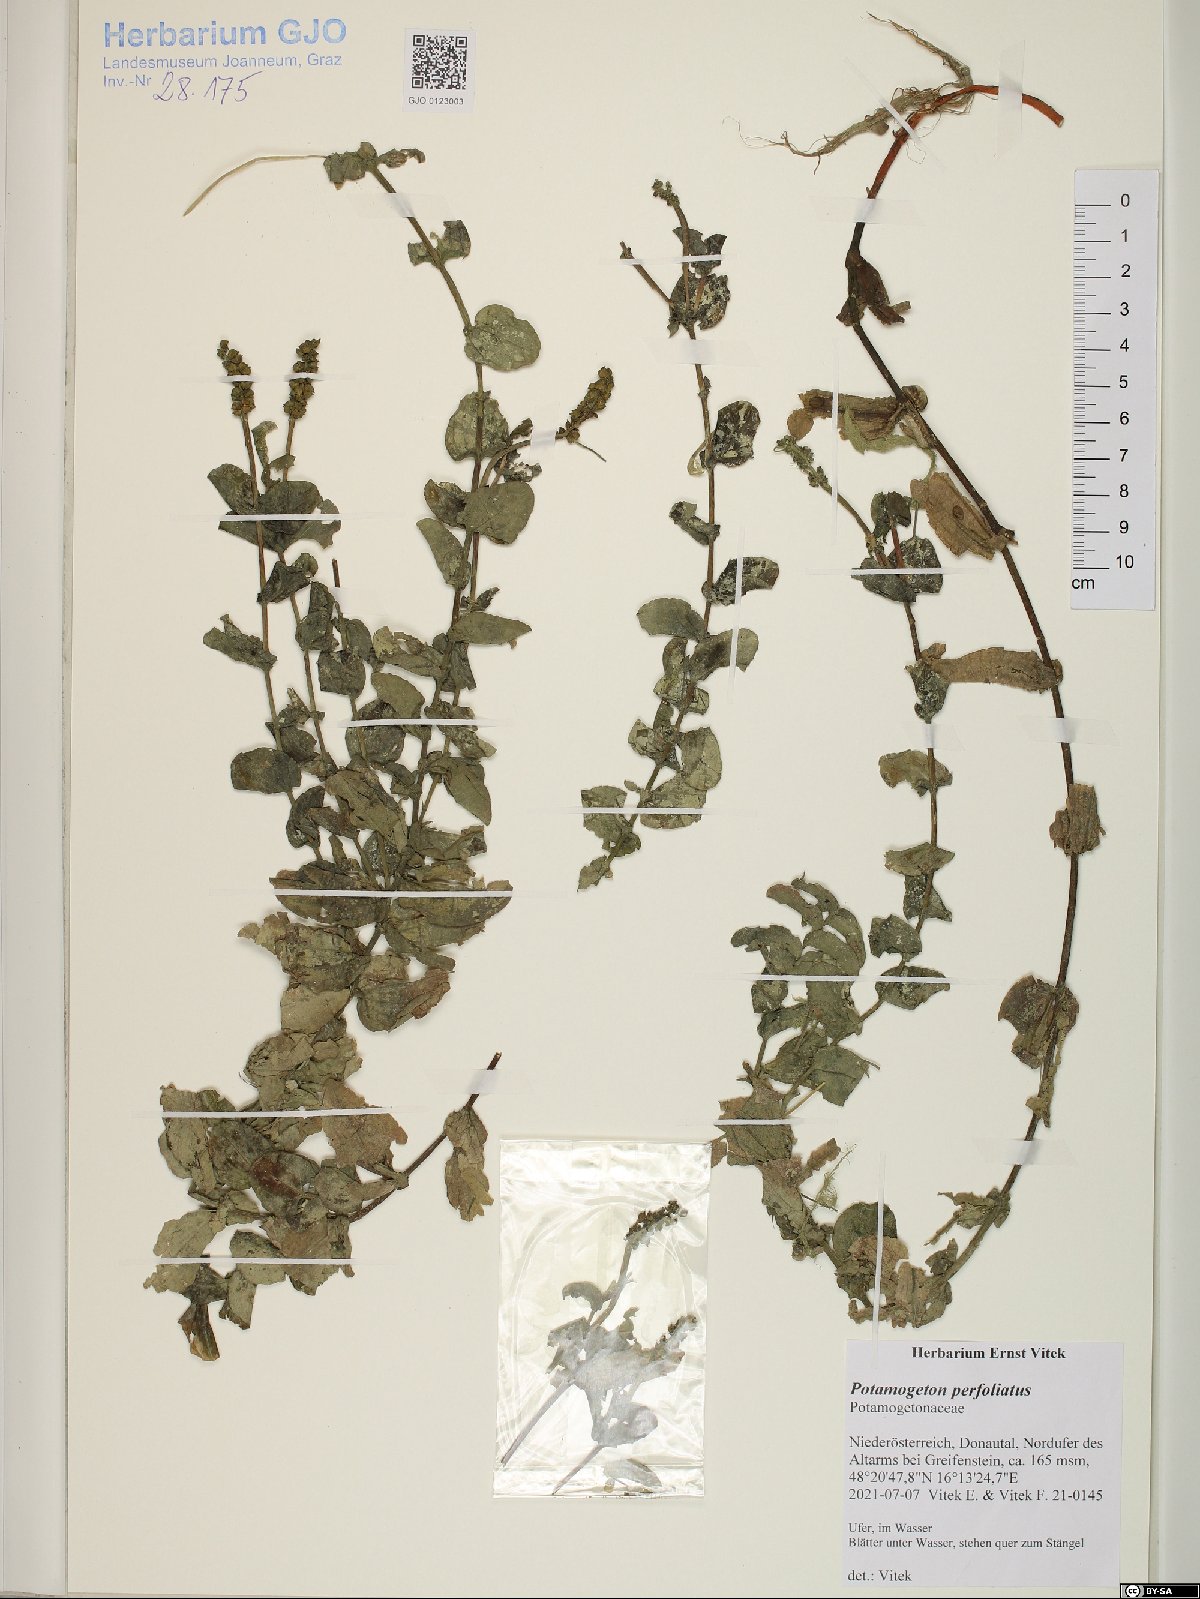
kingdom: Plantae
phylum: Tracheophyta
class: Liliopsida
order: Alismatales
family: Potamogetonaceae
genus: Potamogeton
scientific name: Potamogeton perfoliatus
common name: Perfoliate pondweed
